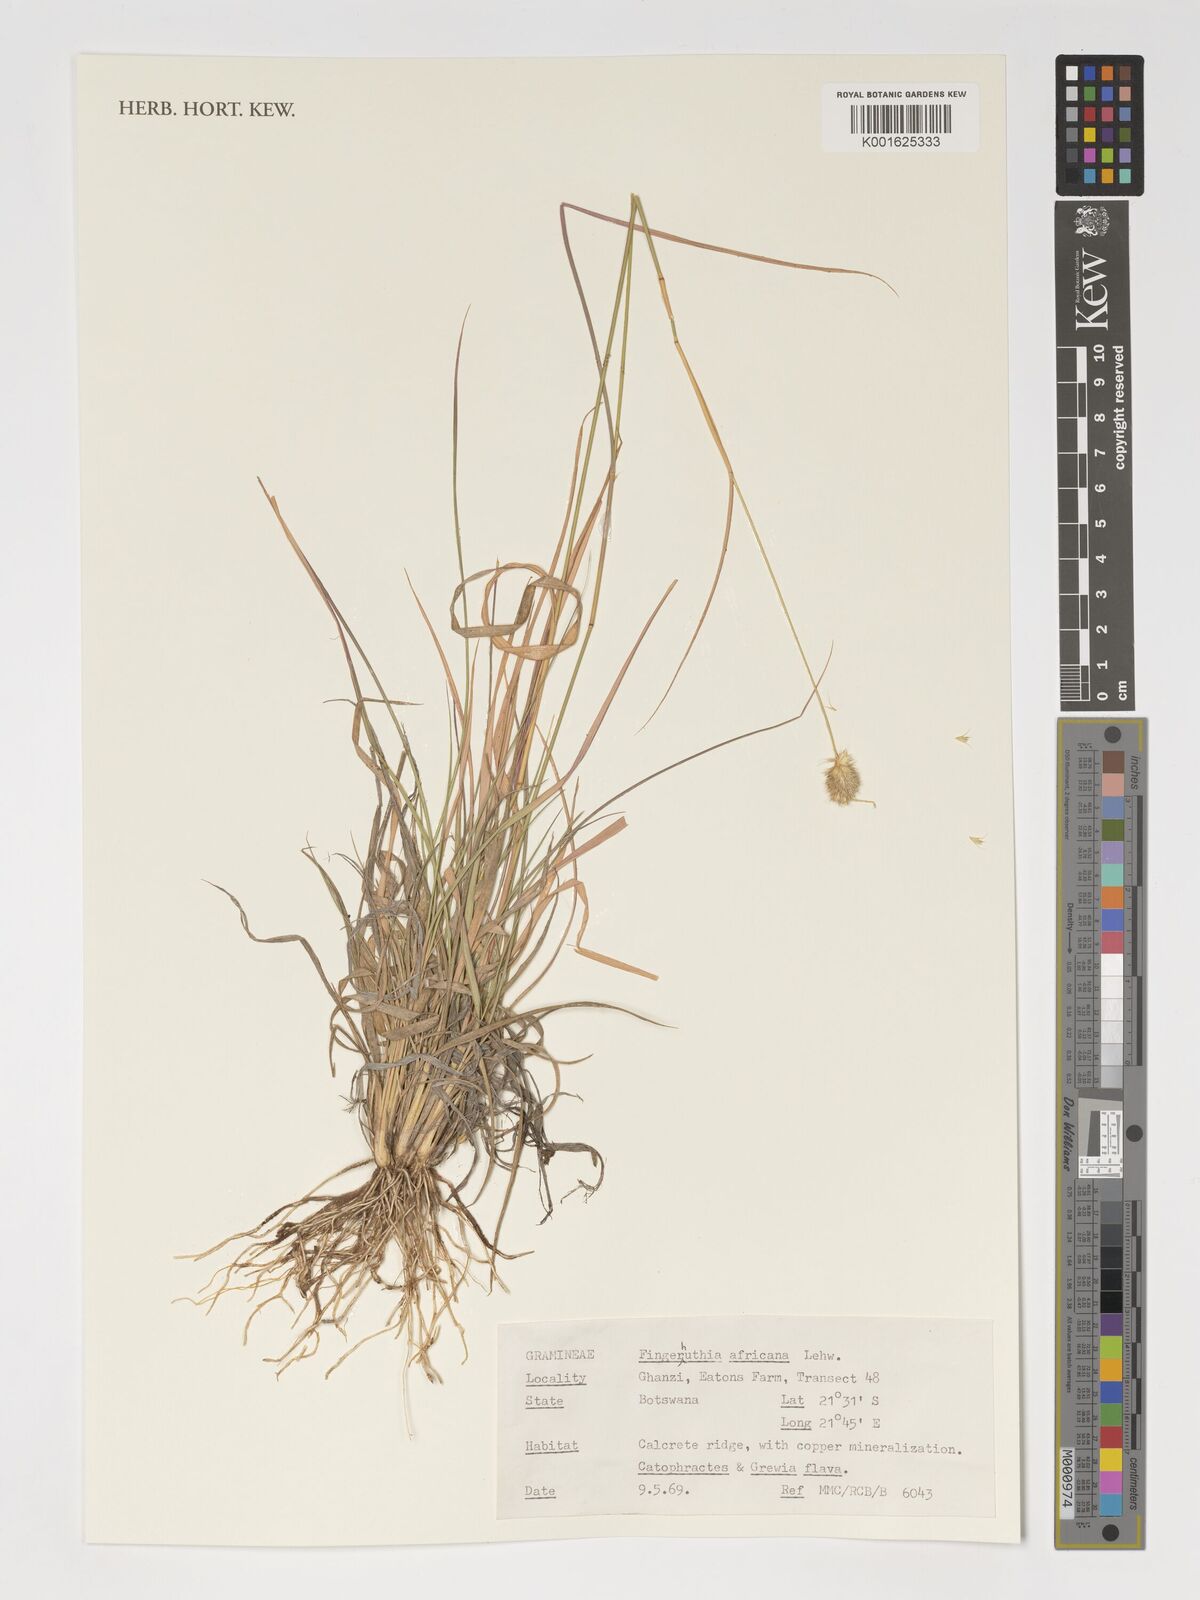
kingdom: Plantae
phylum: Tracheophyta
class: Liliopsida
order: Poales
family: Poaceae
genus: Fingerhuthia
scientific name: Fingerhuthia africana
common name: Zulu fescue
